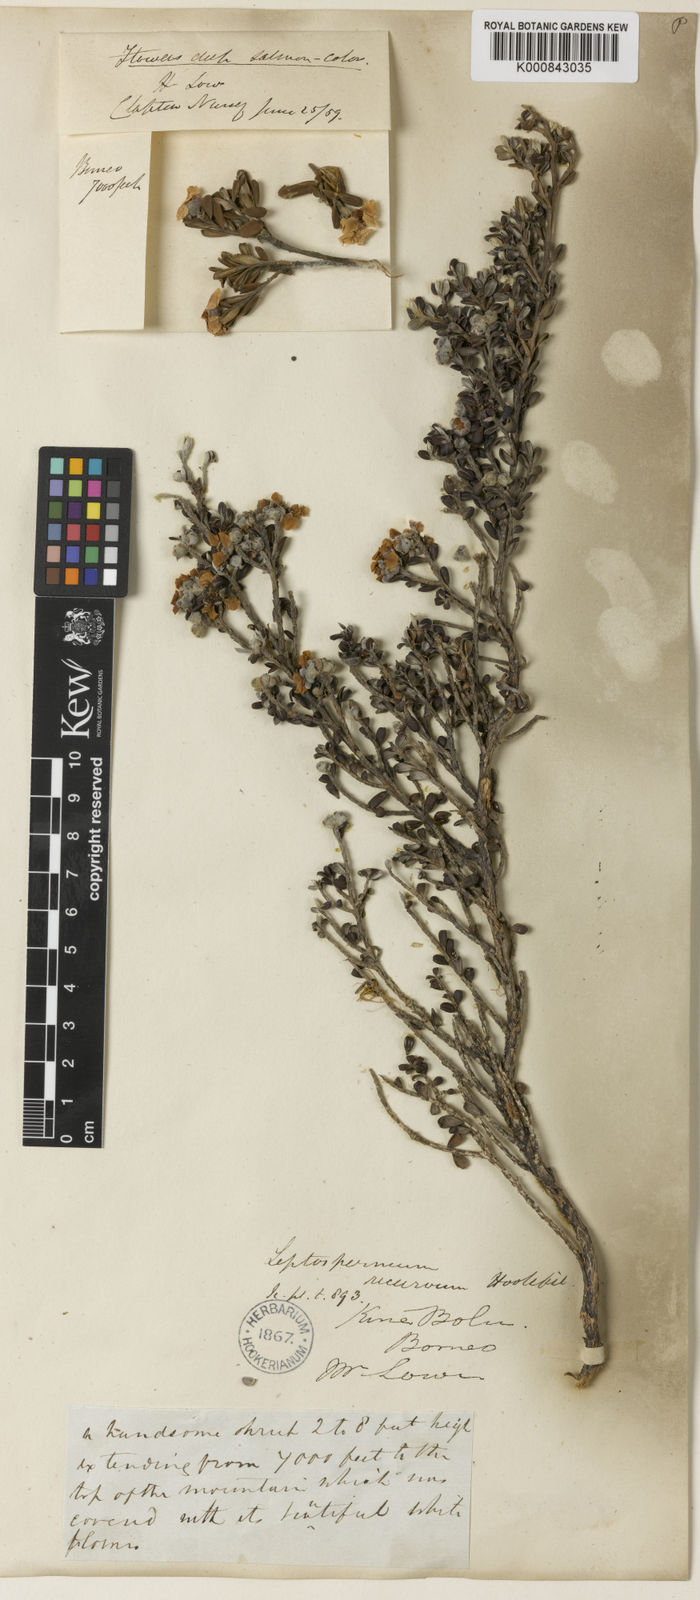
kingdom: Plantae
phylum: Tracheophyta
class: Magnoliopsida
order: Myrtales
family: Myrtaceae
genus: Leptospermum
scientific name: Leptospermum recurvum
